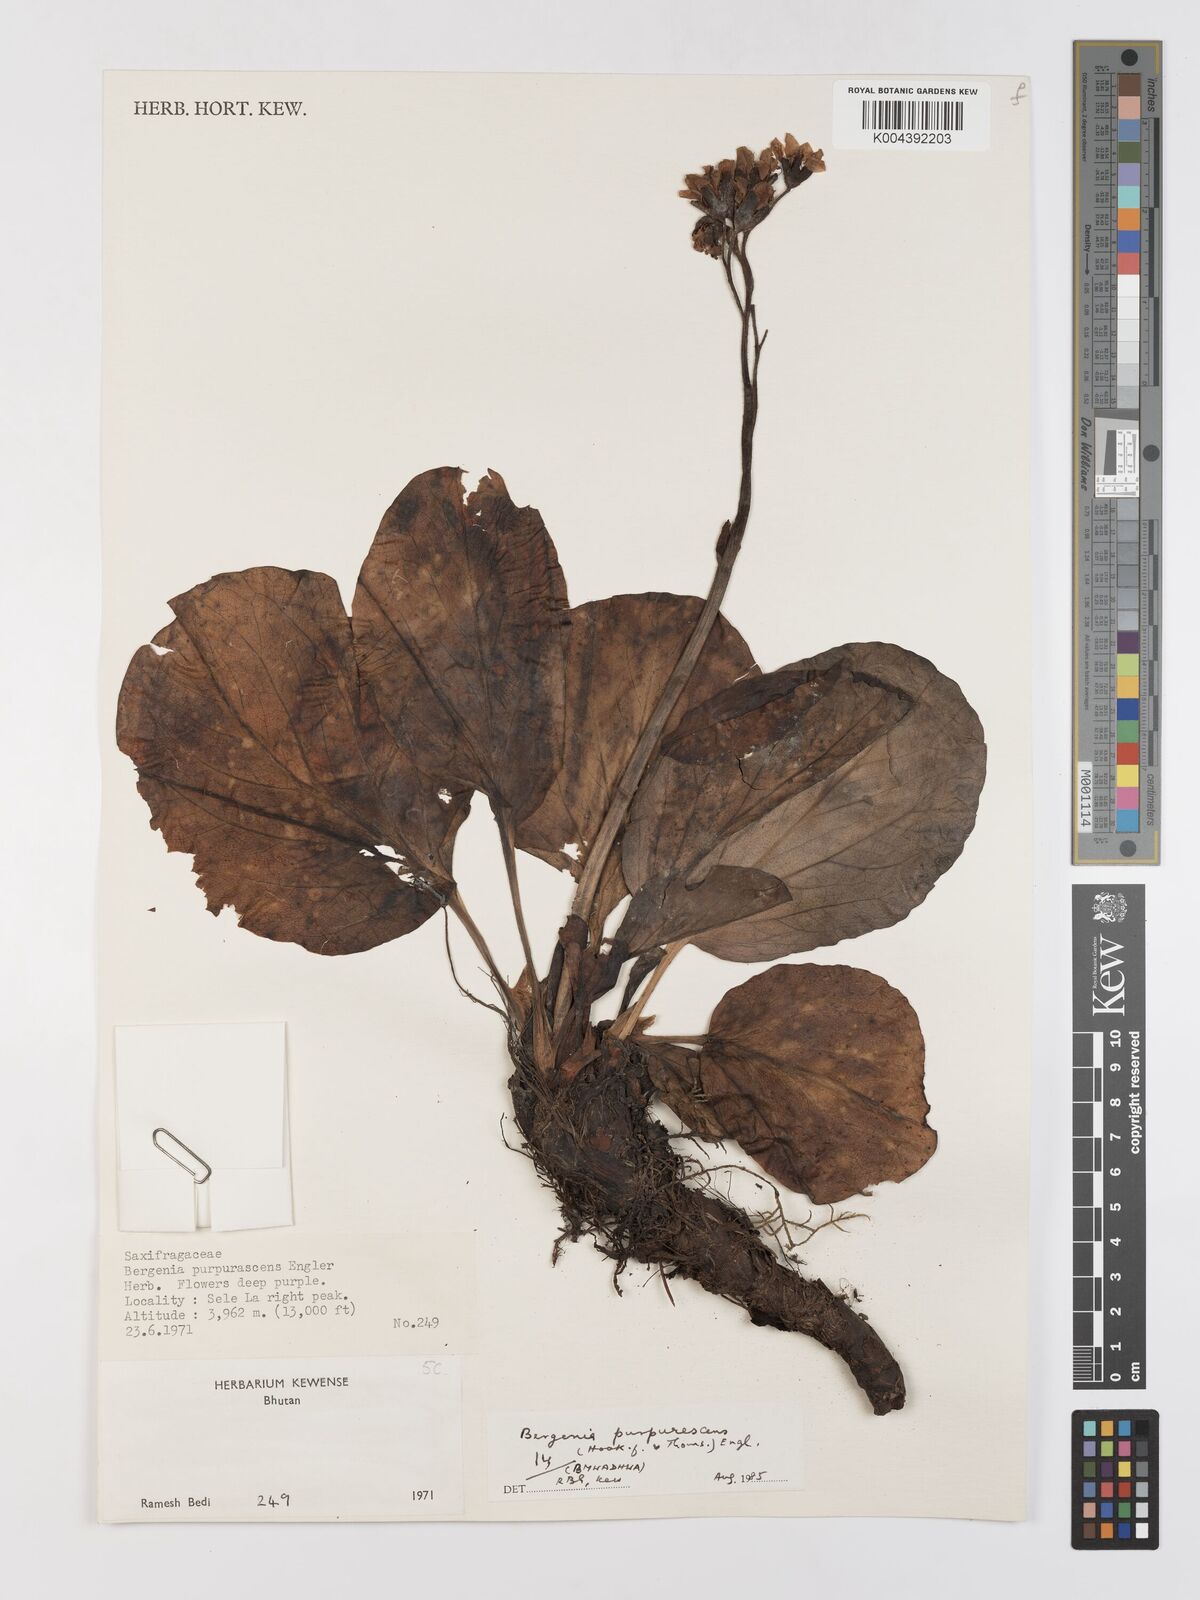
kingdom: Plantae
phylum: Tracheophyta
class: Magnoliopsida
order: Saxifragales
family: Saxifragaceae
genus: Bergenia
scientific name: Bergenia purpurascens
